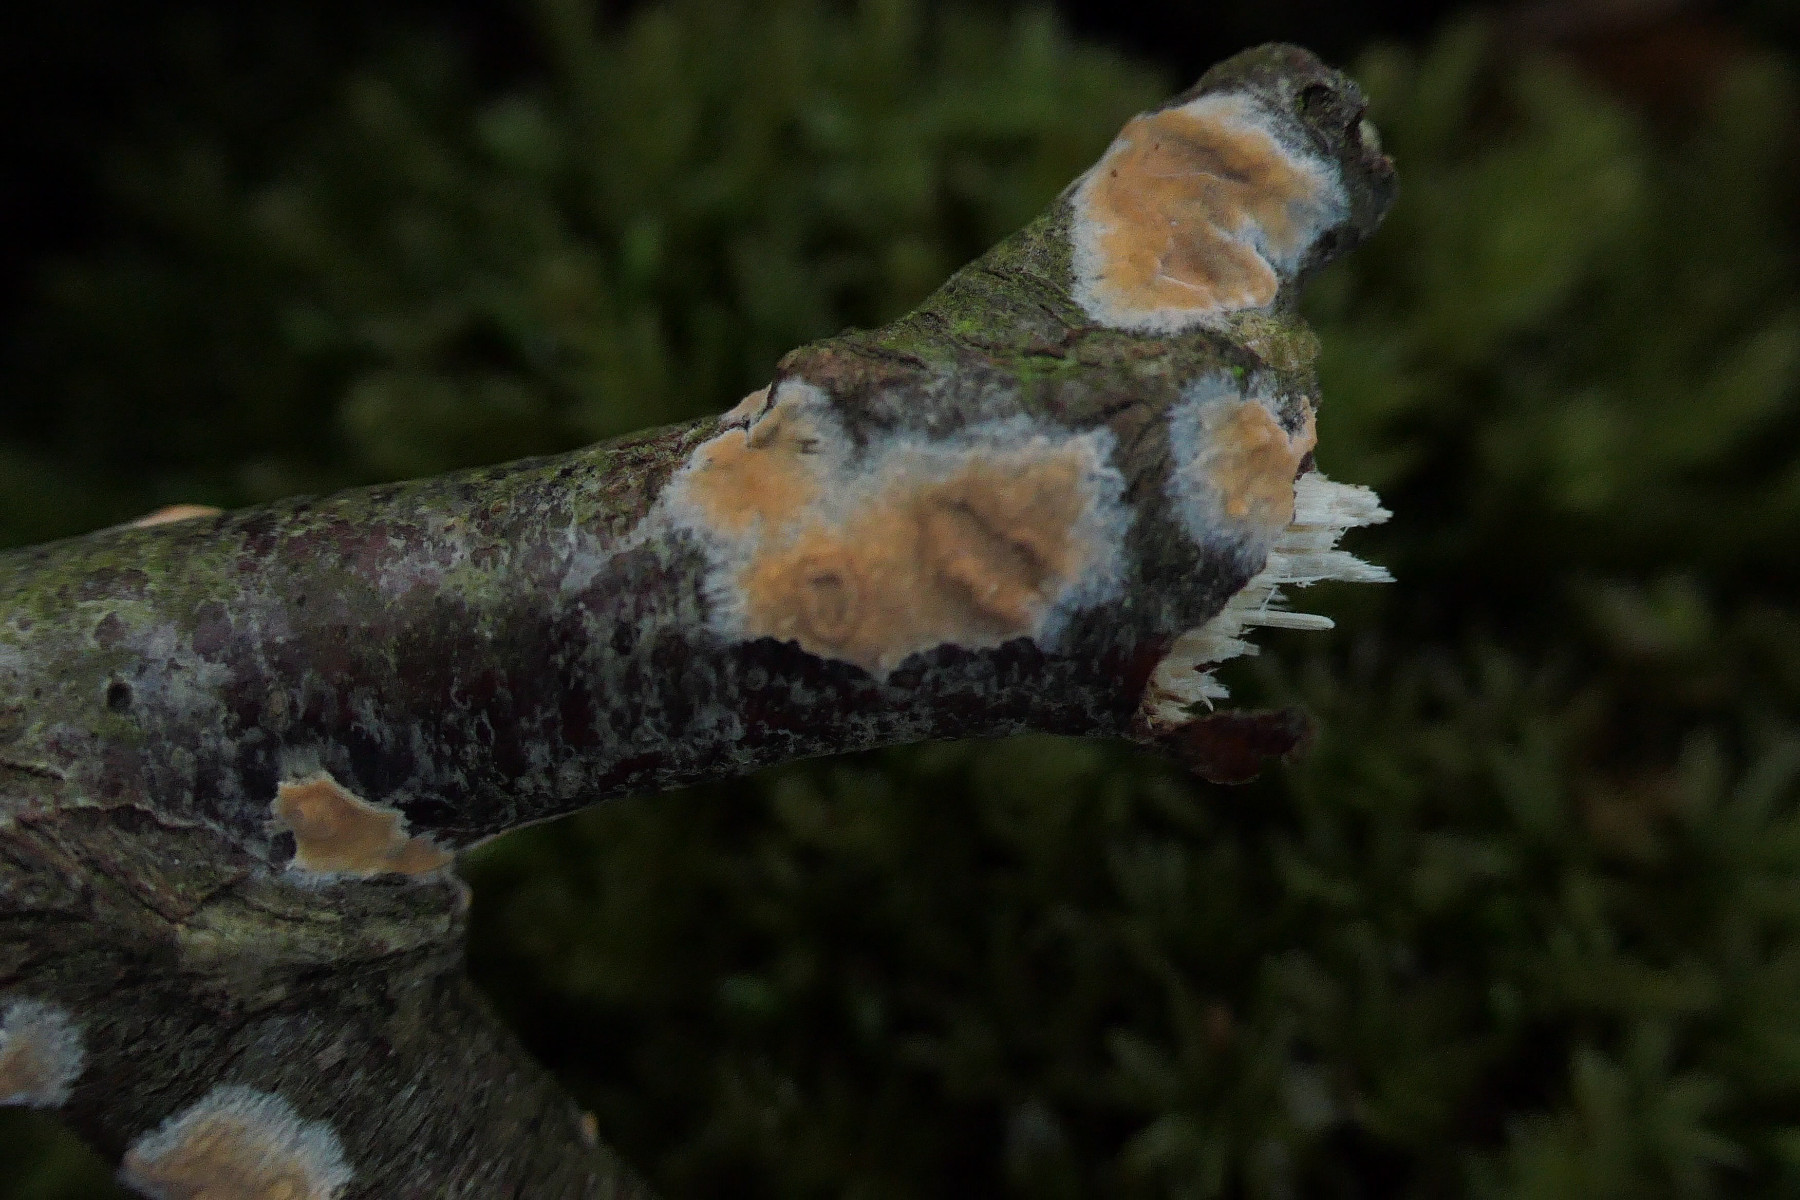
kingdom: Fungi
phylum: Basidiomycota
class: Agaricomycetes
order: Russulales
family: Peniophoraceae
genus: Peniophora
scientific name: Peniophora incarnata
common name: laksefarvet voksskind
